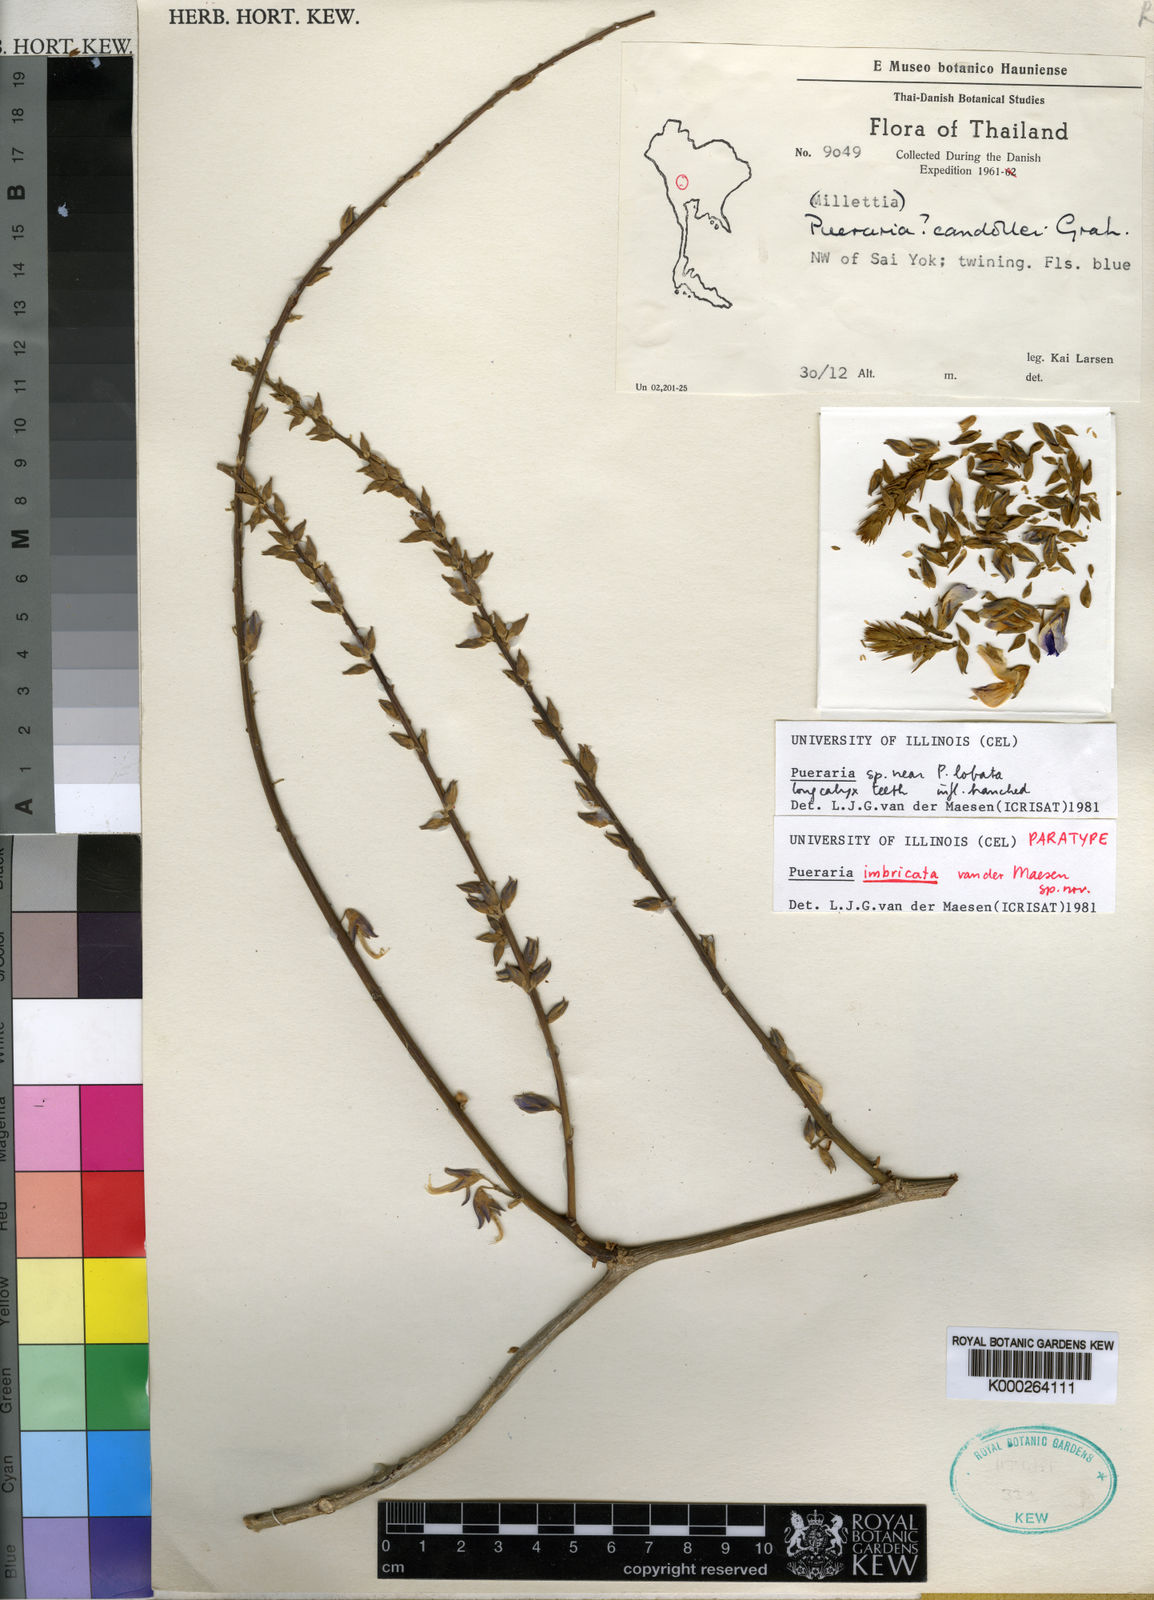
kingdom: Plantae
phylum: Tracheophyta
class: Magnoliopsida
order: Fabales
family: Fabaceae
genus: Pueraria
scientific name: Pueraria
